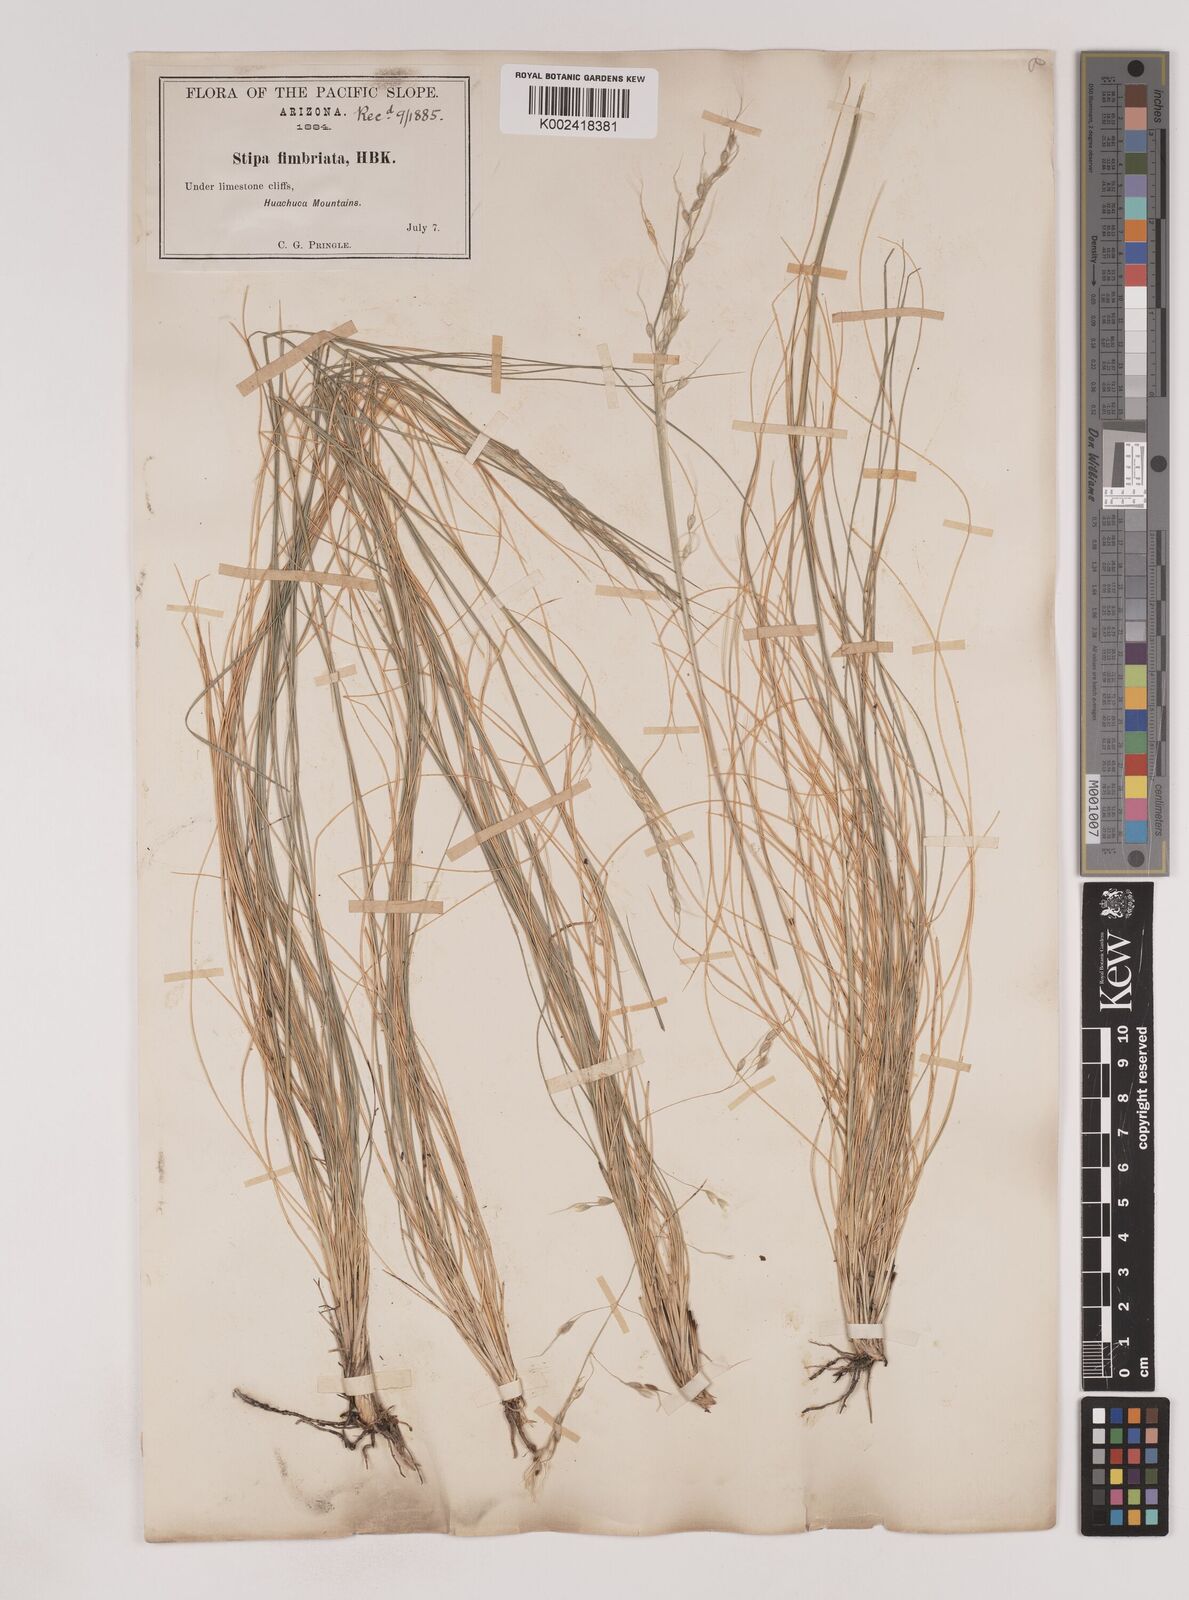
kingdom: Plantae
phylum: Tracheophyta
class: Liliopsida
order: Poales
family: Poaceae
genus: Piptochaetium
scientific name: Piptochaetium fimbriatum
